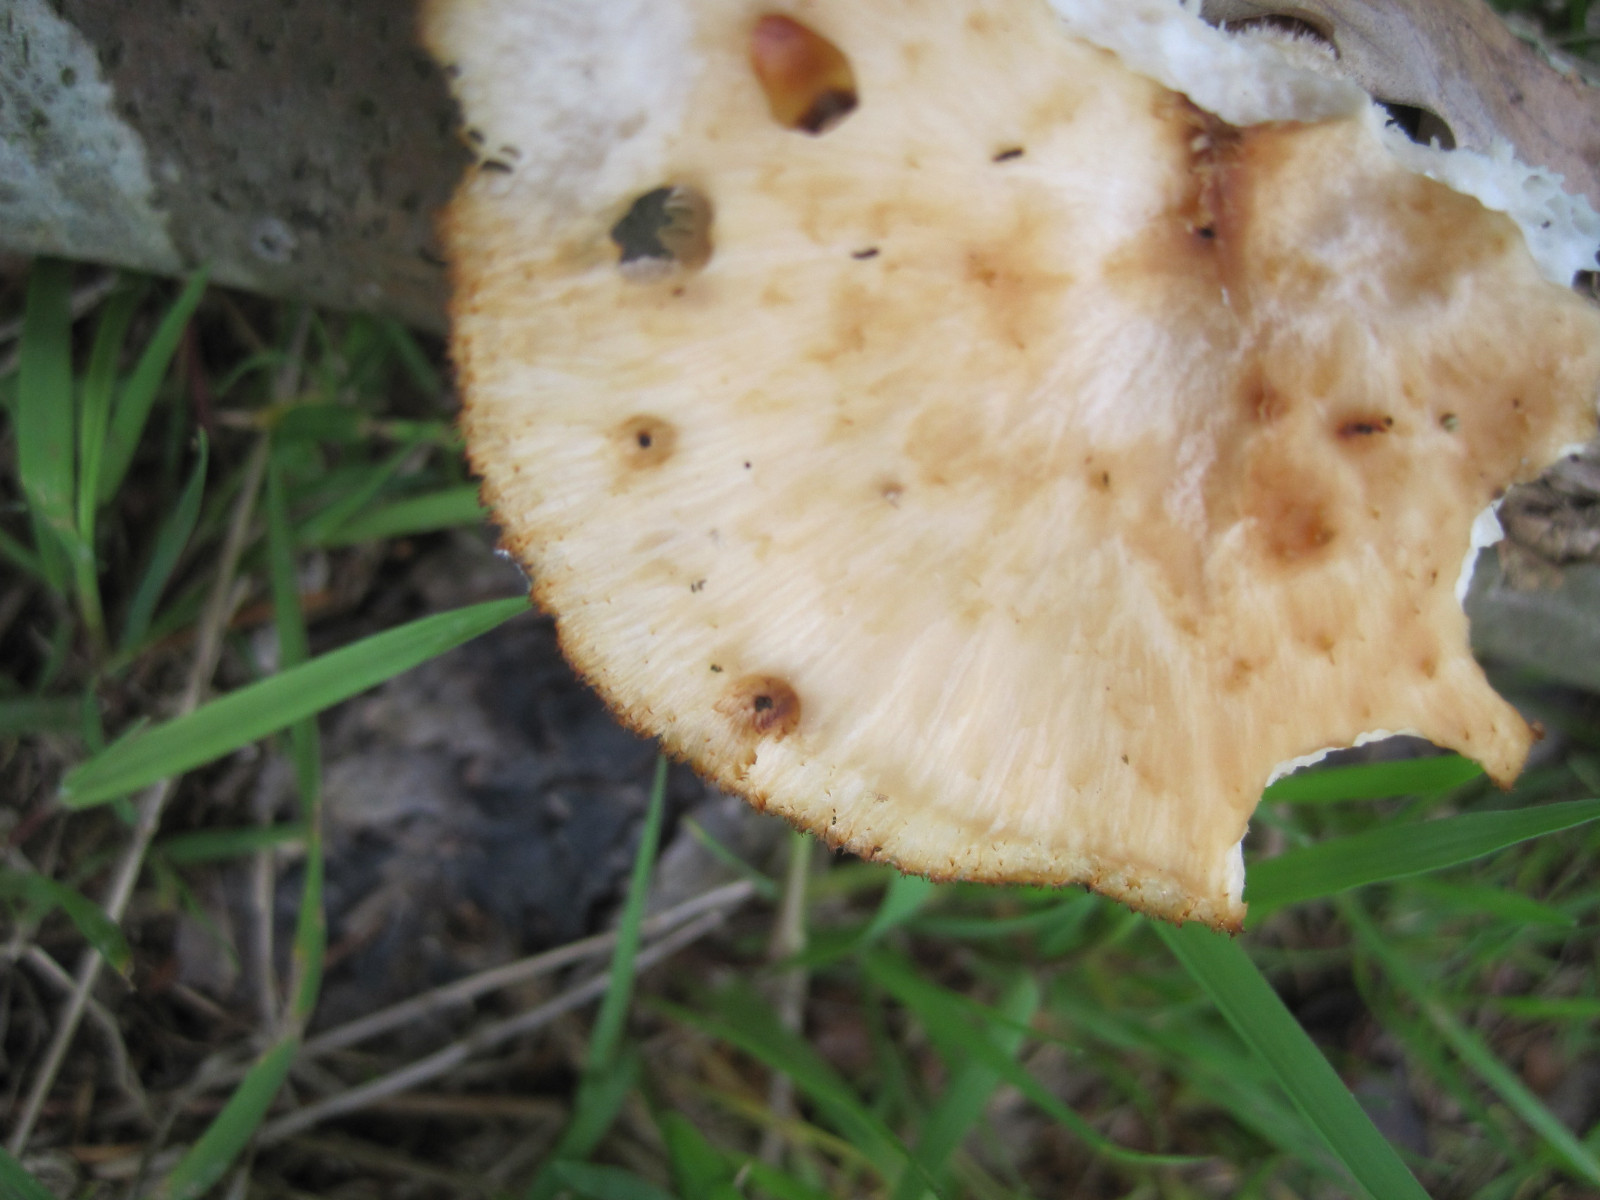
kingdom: Fungi
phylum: Basidiomycota
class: Agaricomycetes
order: Polyporales
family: Polyporaceae
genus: Polyporus
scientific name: Polyporus tuberaster
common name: knoldet stilkporesvamp
